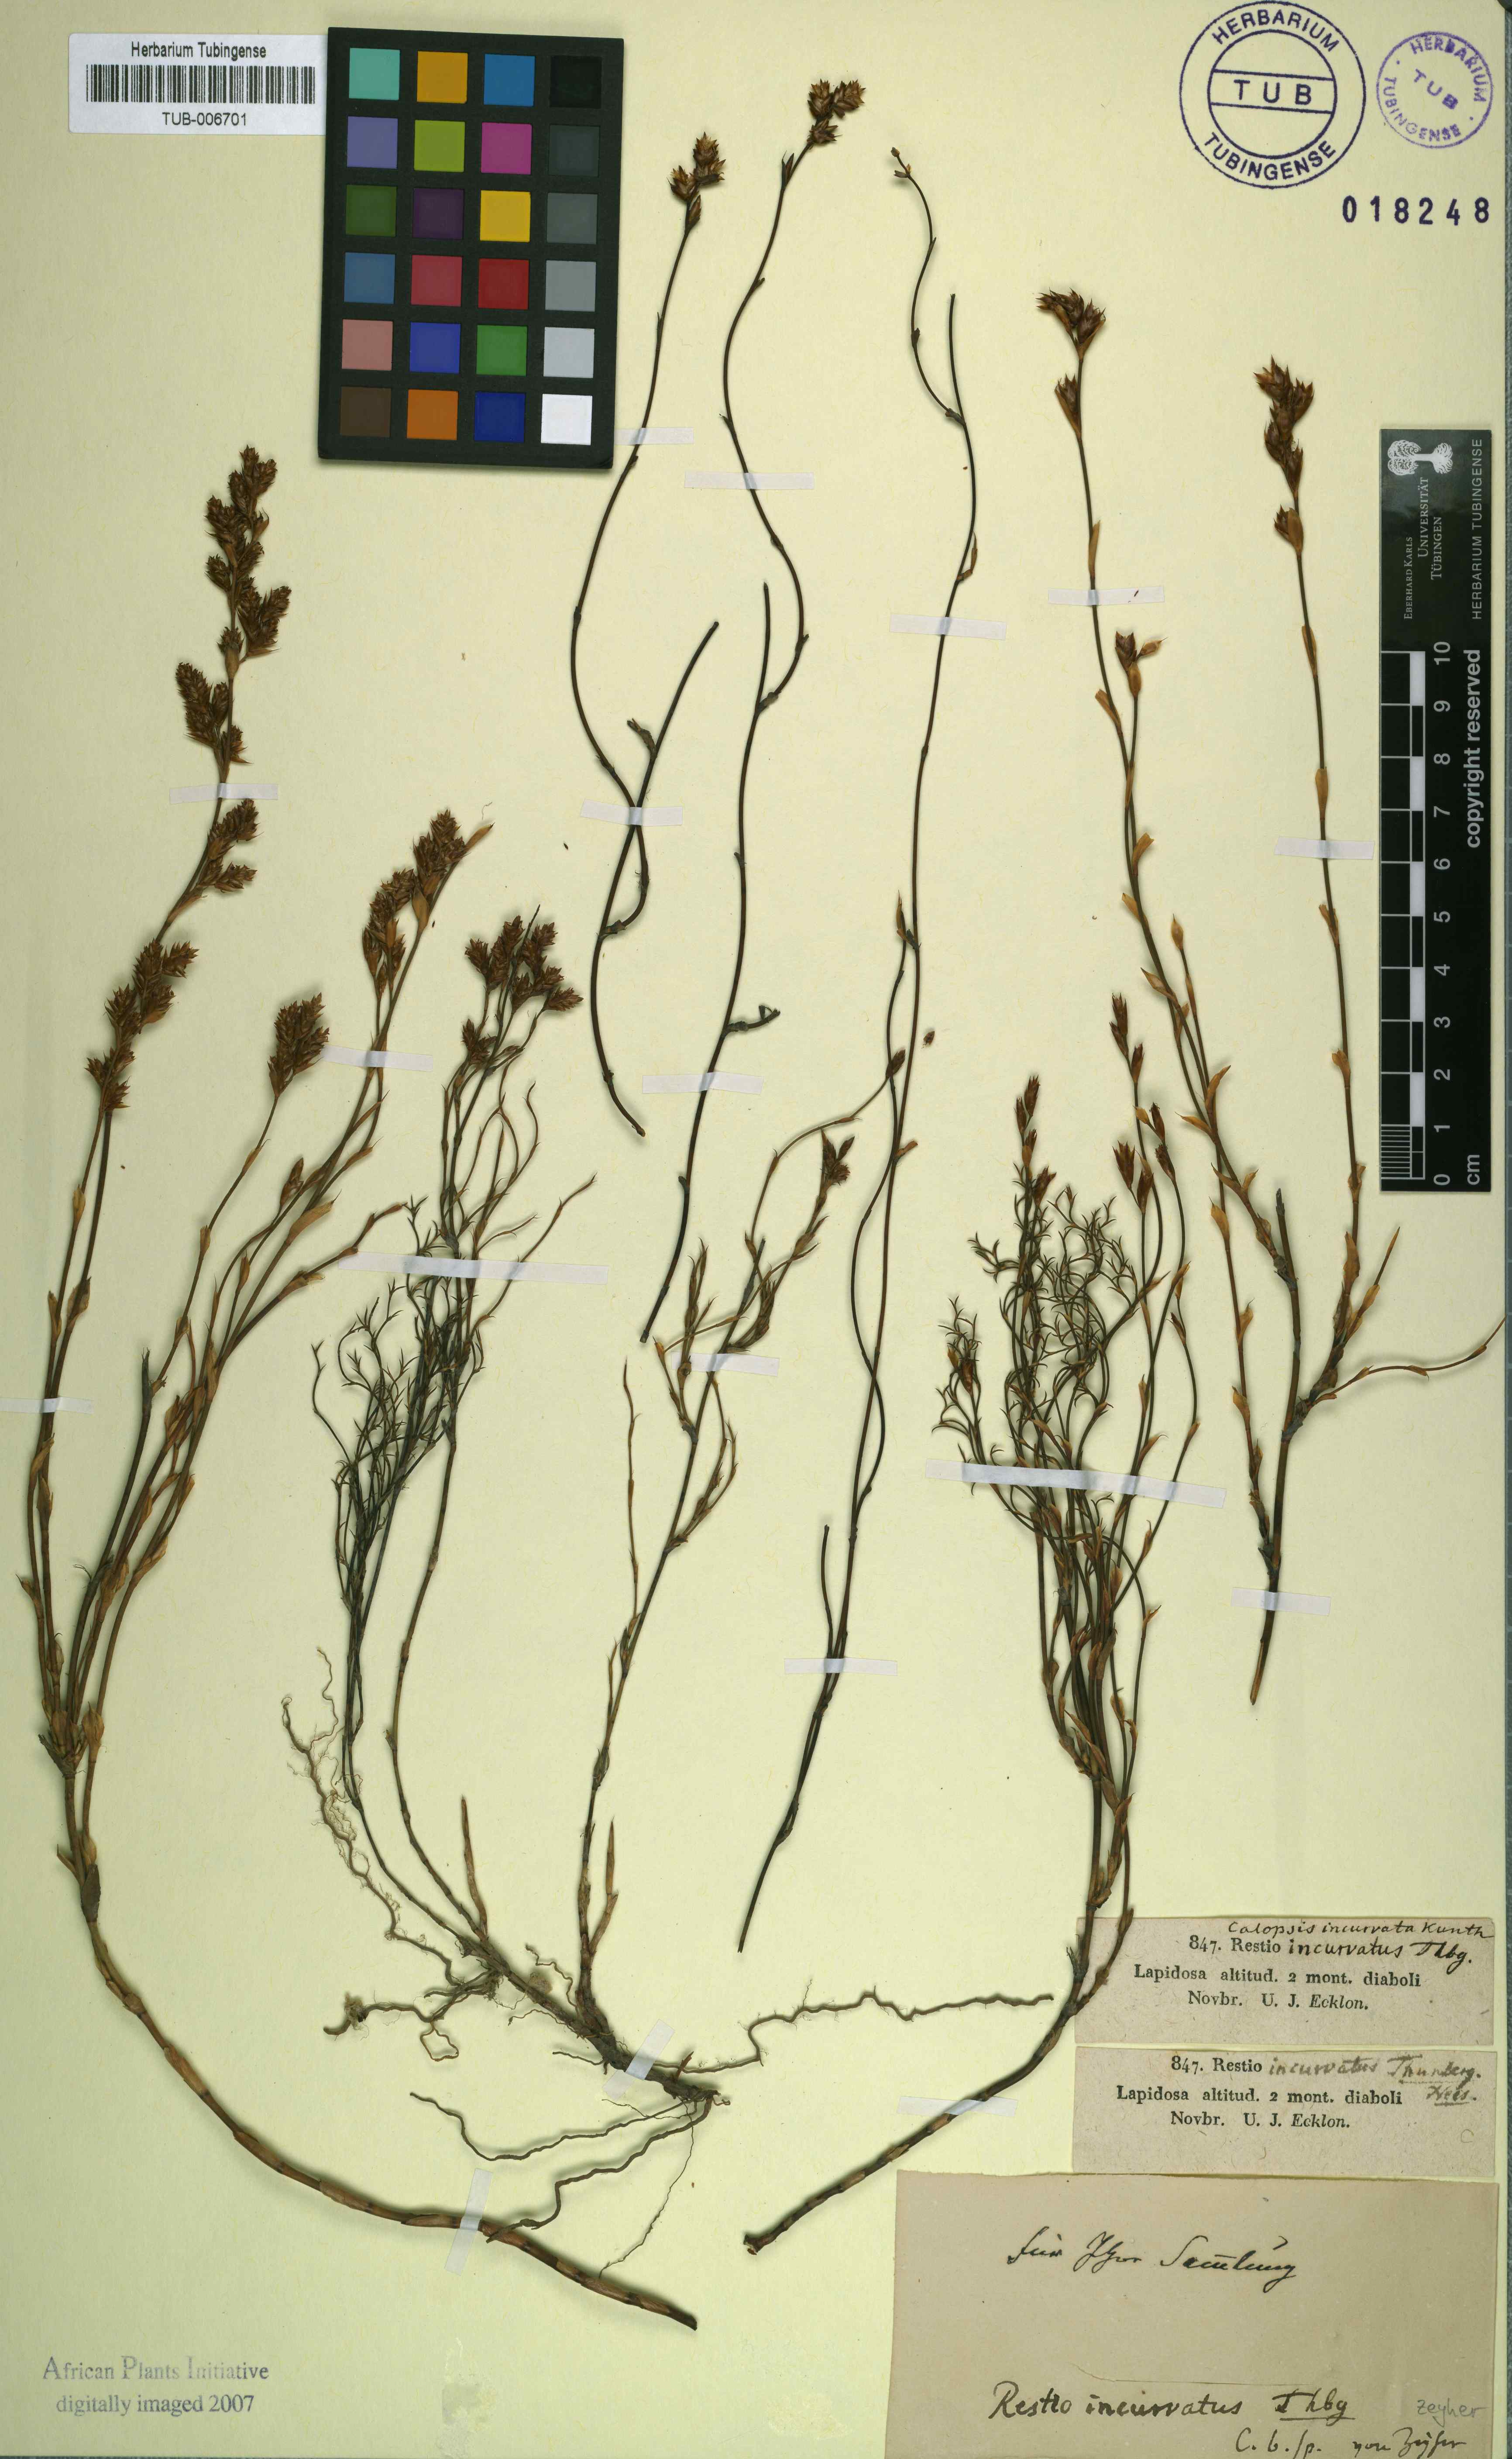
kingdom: Plantae
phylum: Tracheophyta
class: Liliopsida
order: Poales
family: Restionaceae
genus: Willdenowia
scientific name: Willdenowia incurvata
